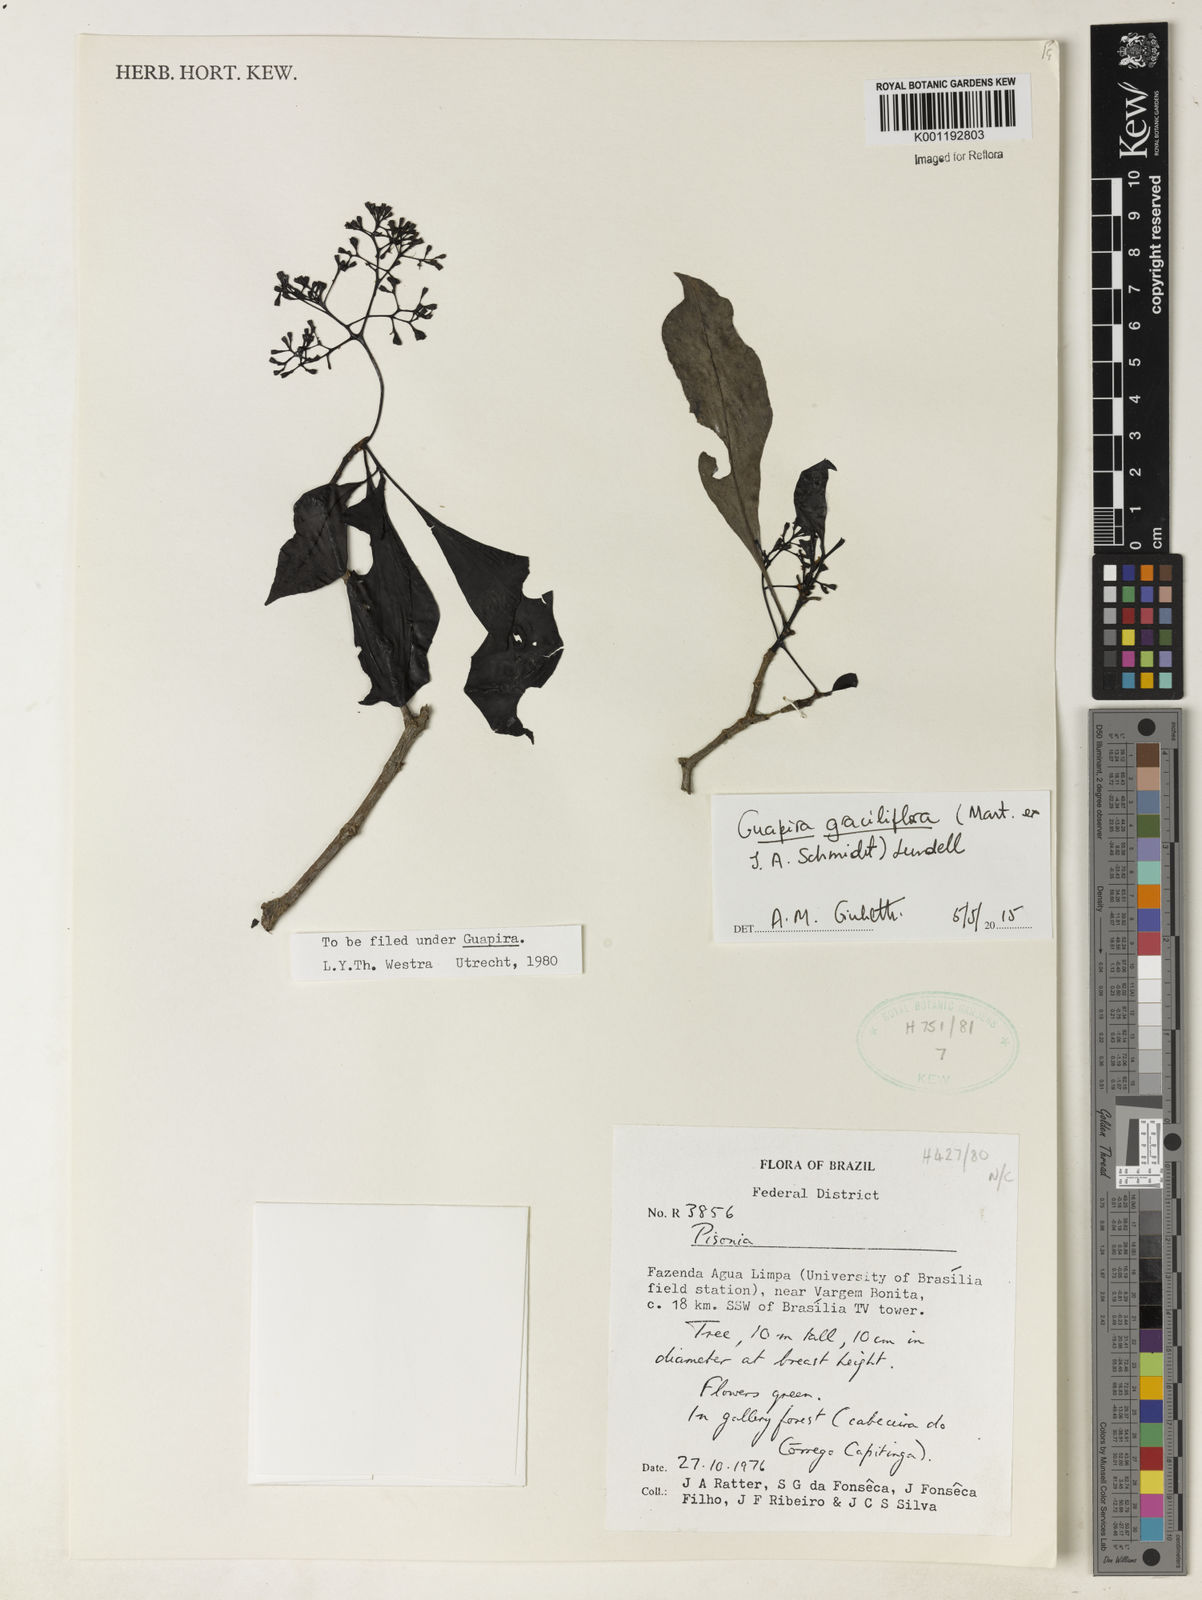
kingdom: Plantae
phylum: Tracheophyta
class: Magnoliopsida
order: Caryophyllales
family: Nyctaginaceae
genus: Guapira
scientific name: Guapira graciliflora
